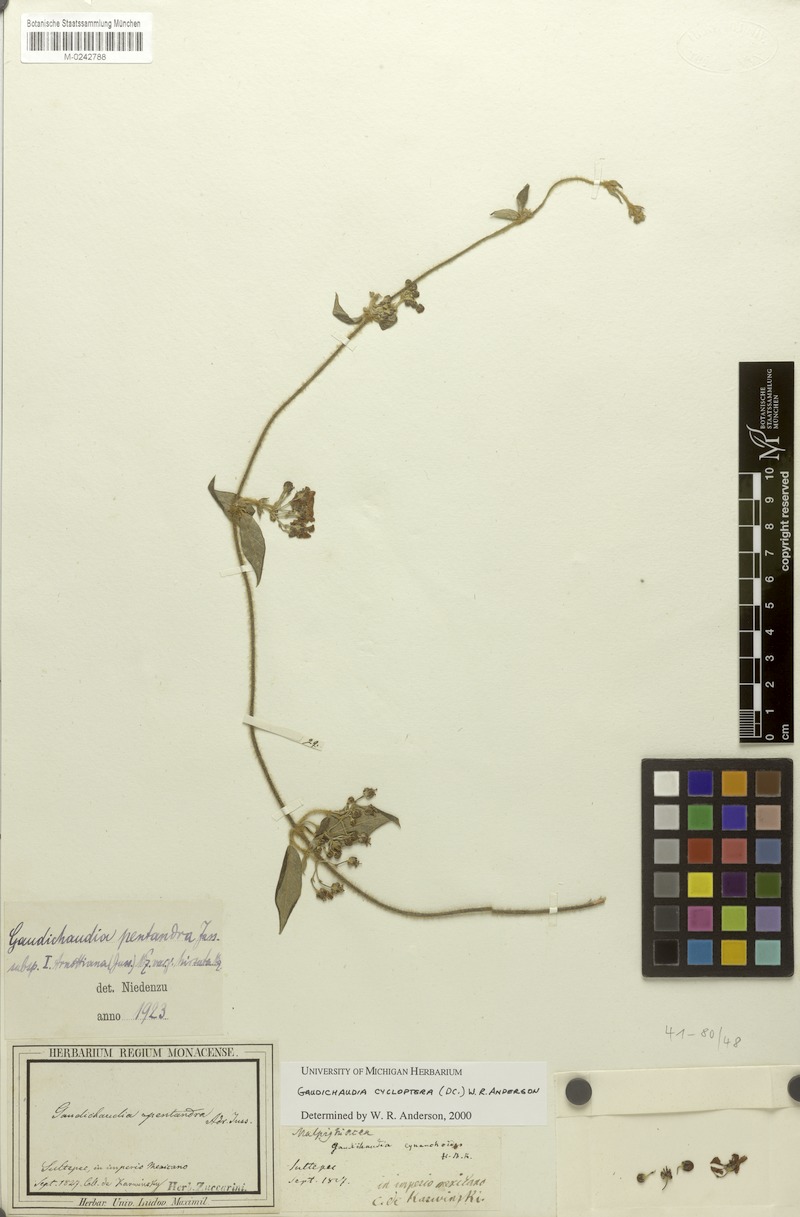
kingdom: Plantae
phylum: Tracheophyta
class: Magnoliopsida
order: Malpighiales
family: Malpighiaceae
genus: Gaudichaudia
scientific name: Gaudichaudia cycloptera
